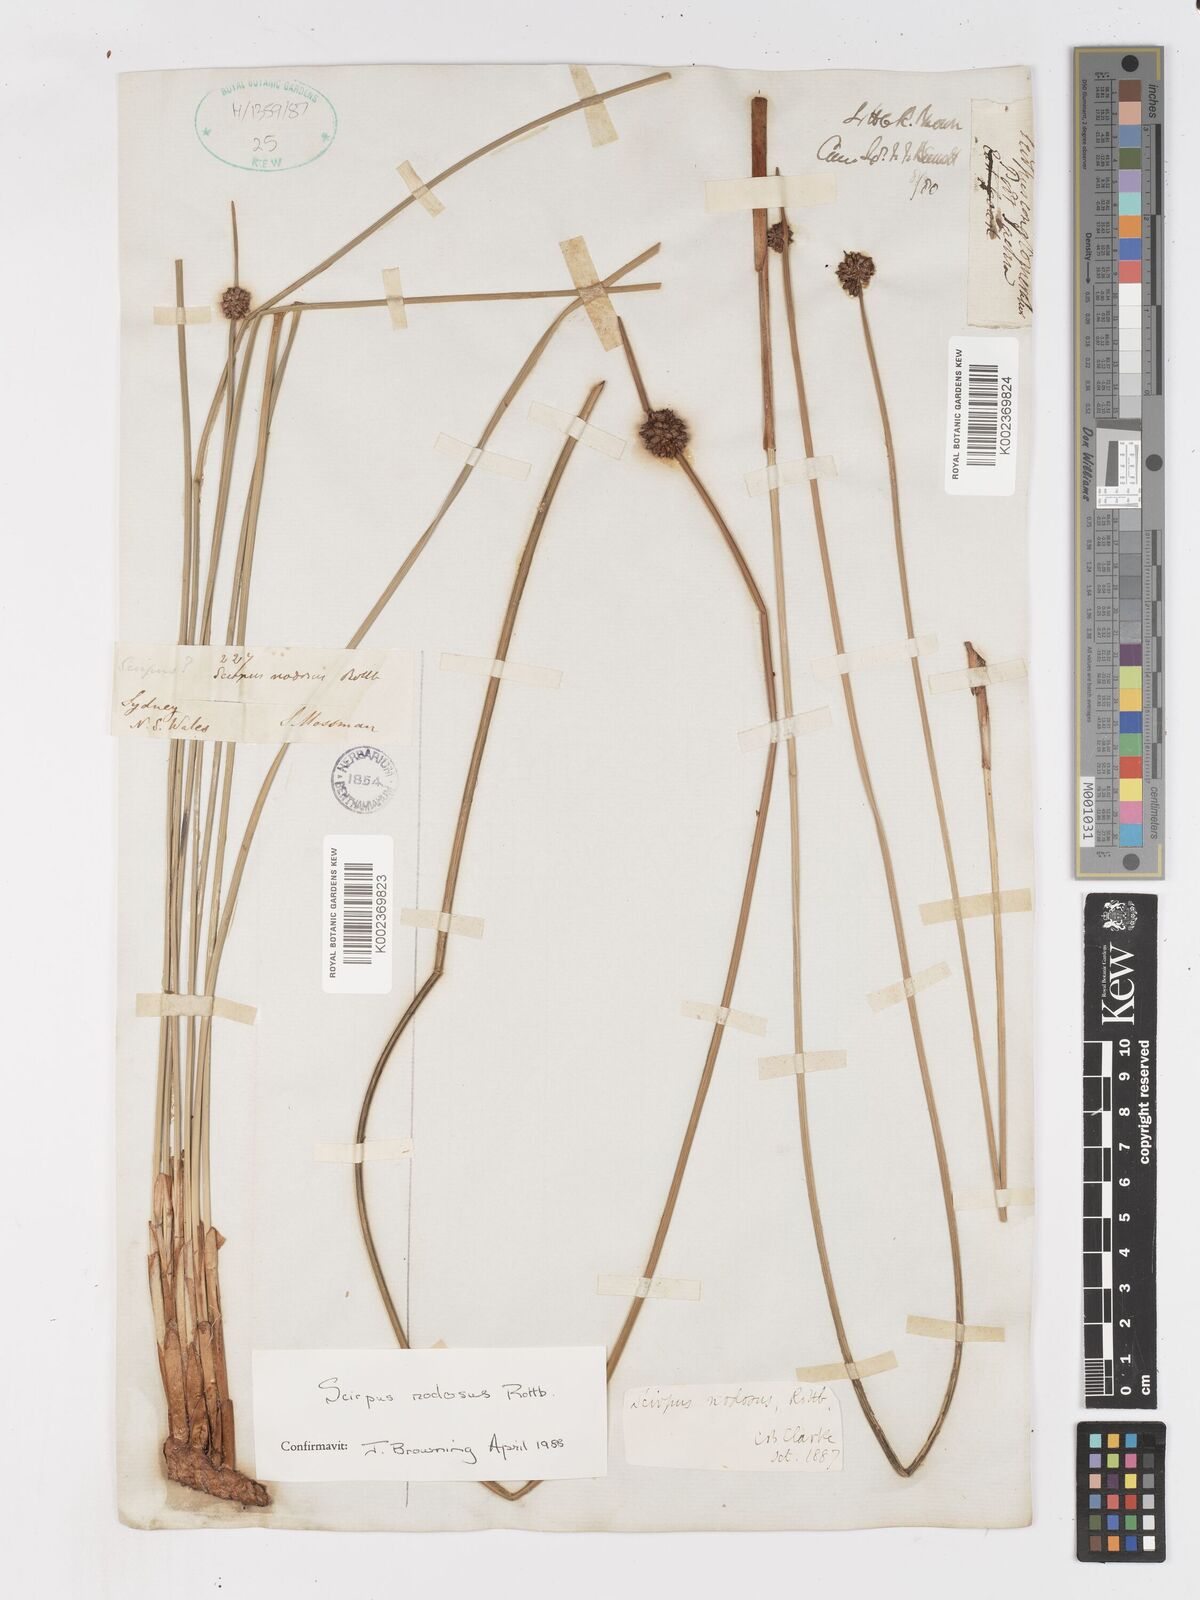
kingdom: Plantae
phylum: Tracheophyta
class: Liliopsida
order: Poales
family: Cyperaceae
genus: Ficinia
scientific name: Ficinia nodosa
